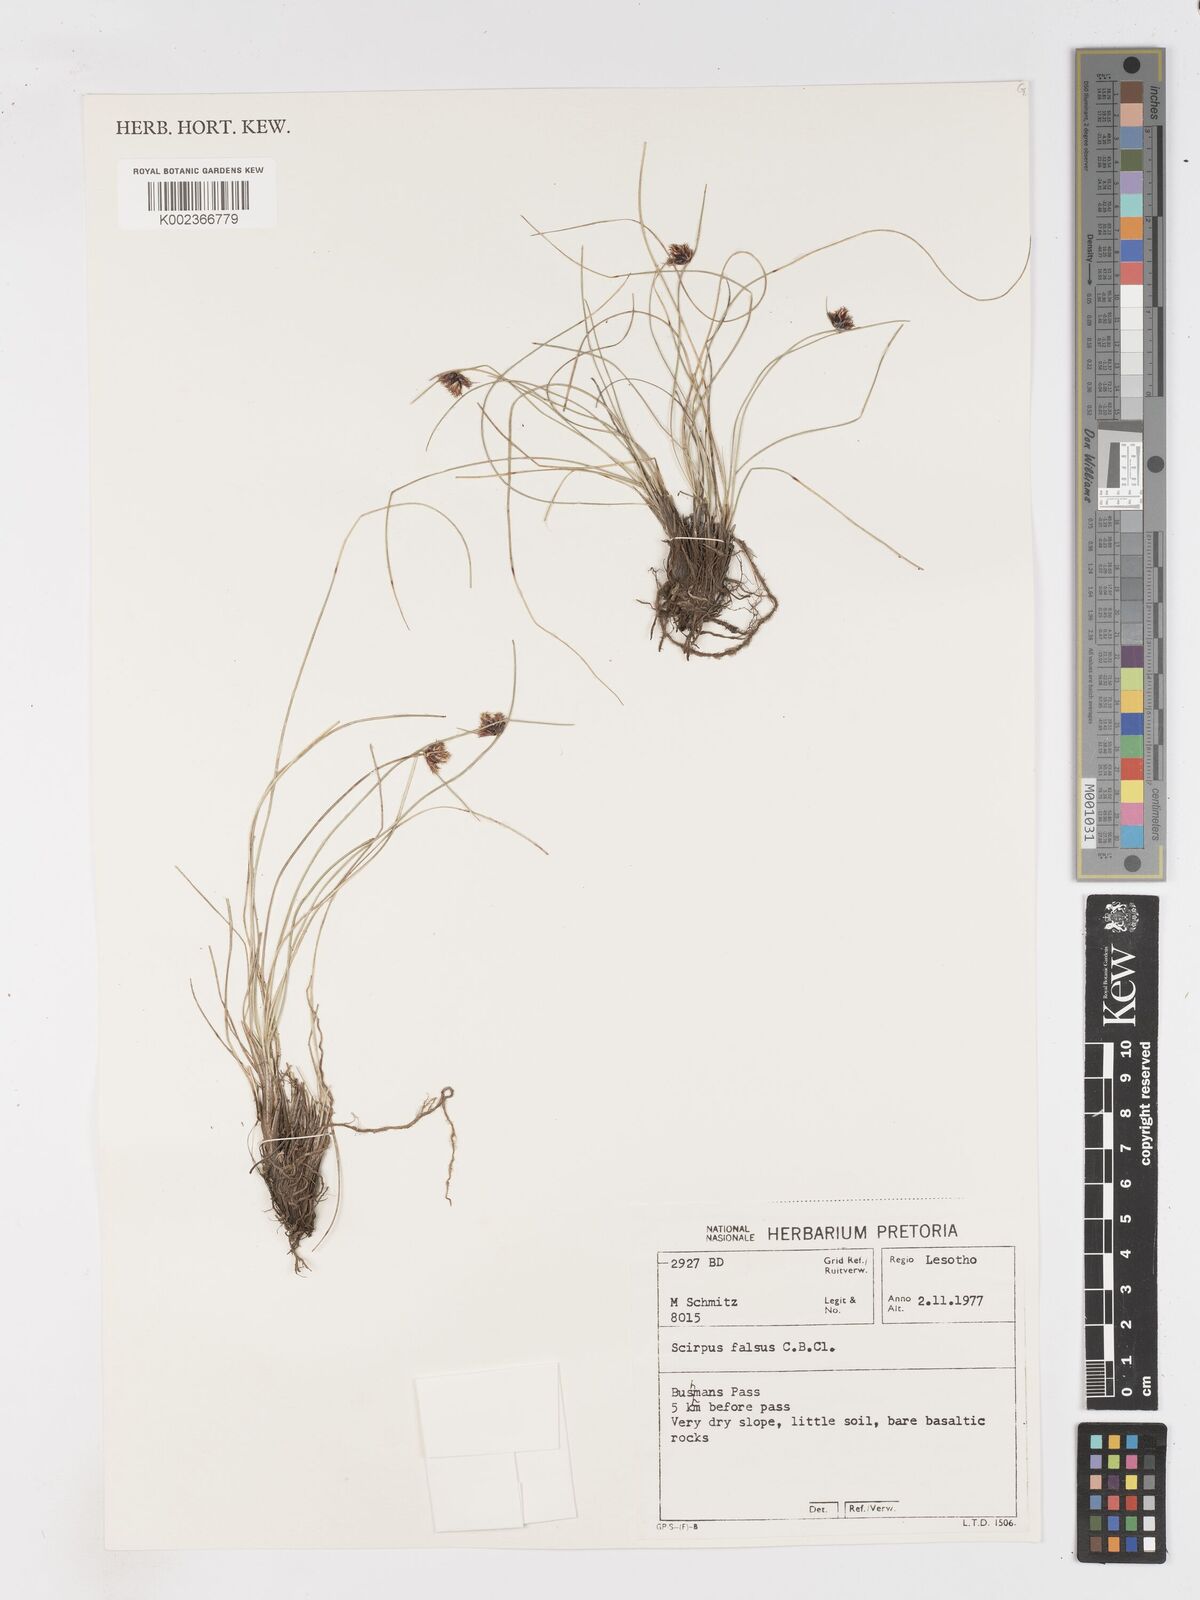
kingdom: Plantae
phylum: Tracheophyta
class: Liliopsida
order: Poales
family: Cyperaceae
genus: Dracoscirpoides
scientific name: Dracoscirpoides falsa
